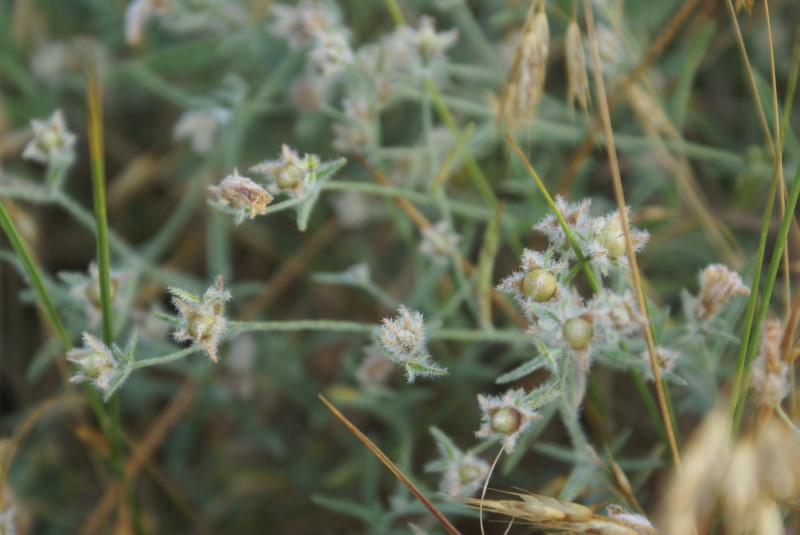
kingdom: Plantae
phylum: Tracheophyta
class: Magnoliopsida
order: Malpighiales
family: Linaceae
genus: Linum
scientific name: Linum usitatissimum
